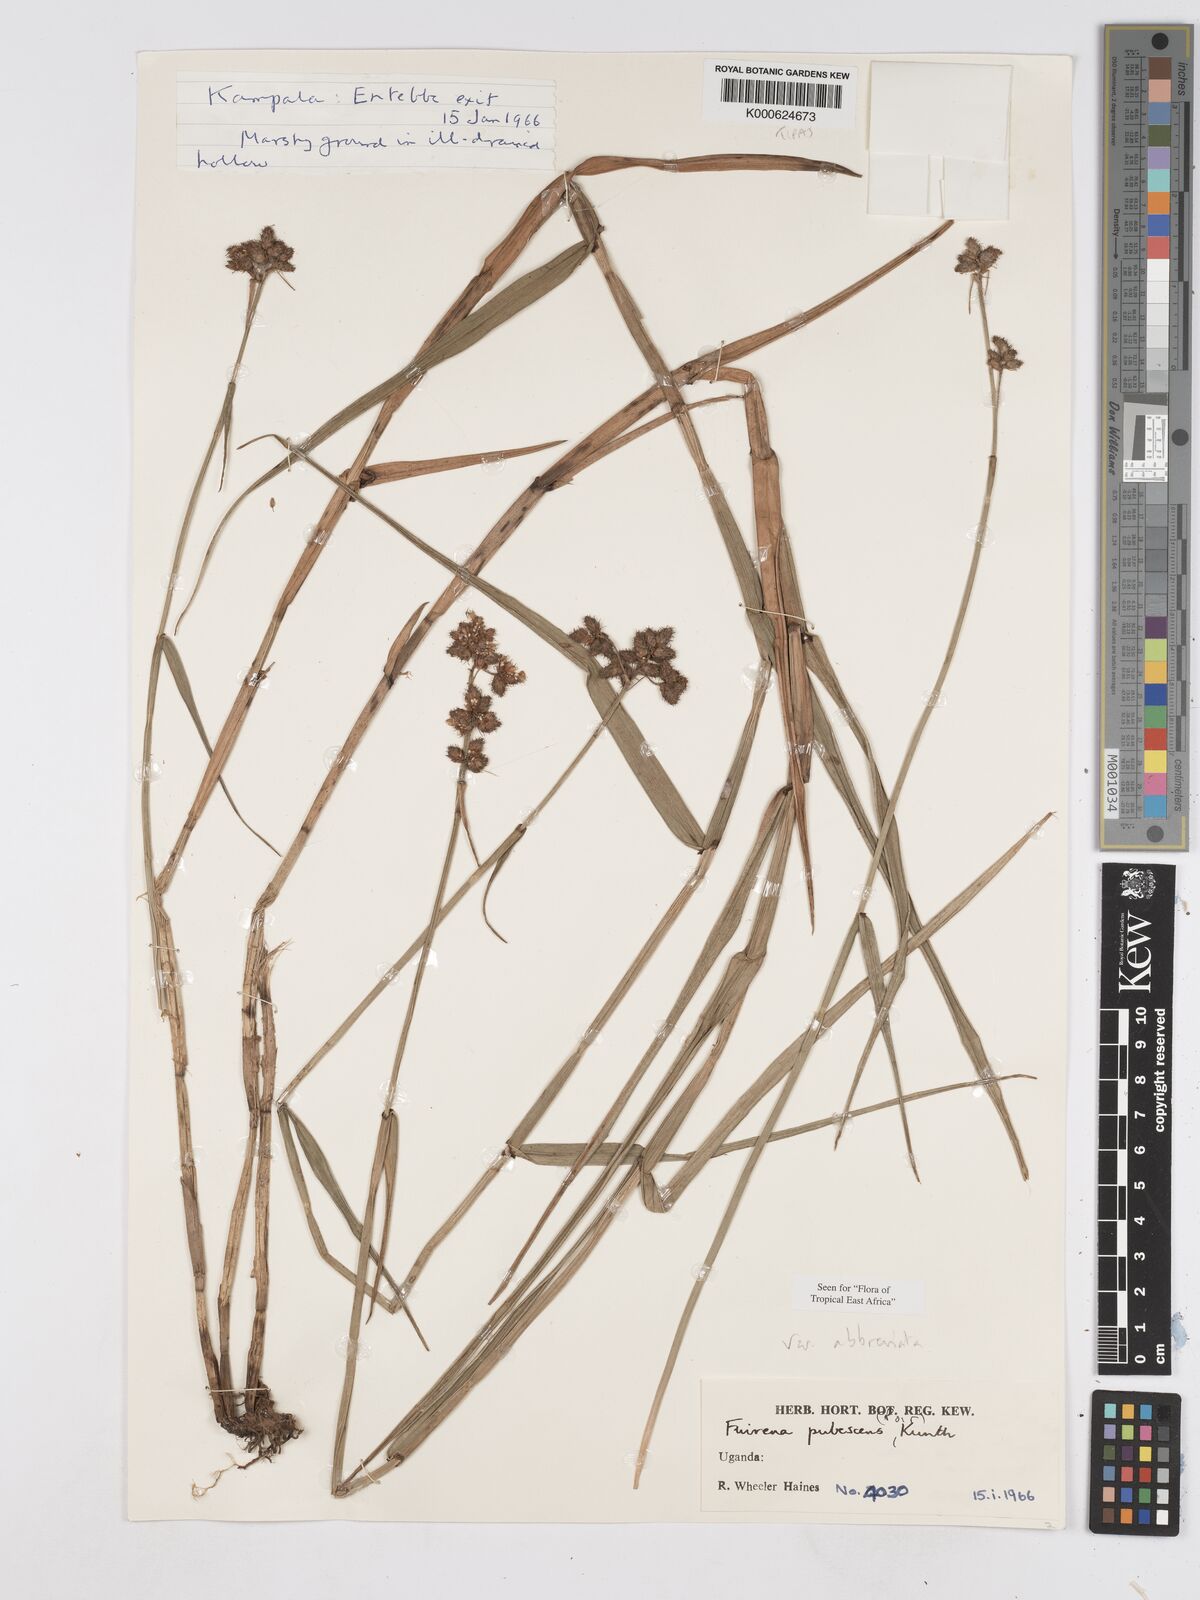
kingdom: Plantae
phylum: Tracheophyta
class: Liliopsida
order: Poales
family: Cyperaceae
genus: Fuirena
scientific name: Fuirena pubescens
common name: Hairy sedge
